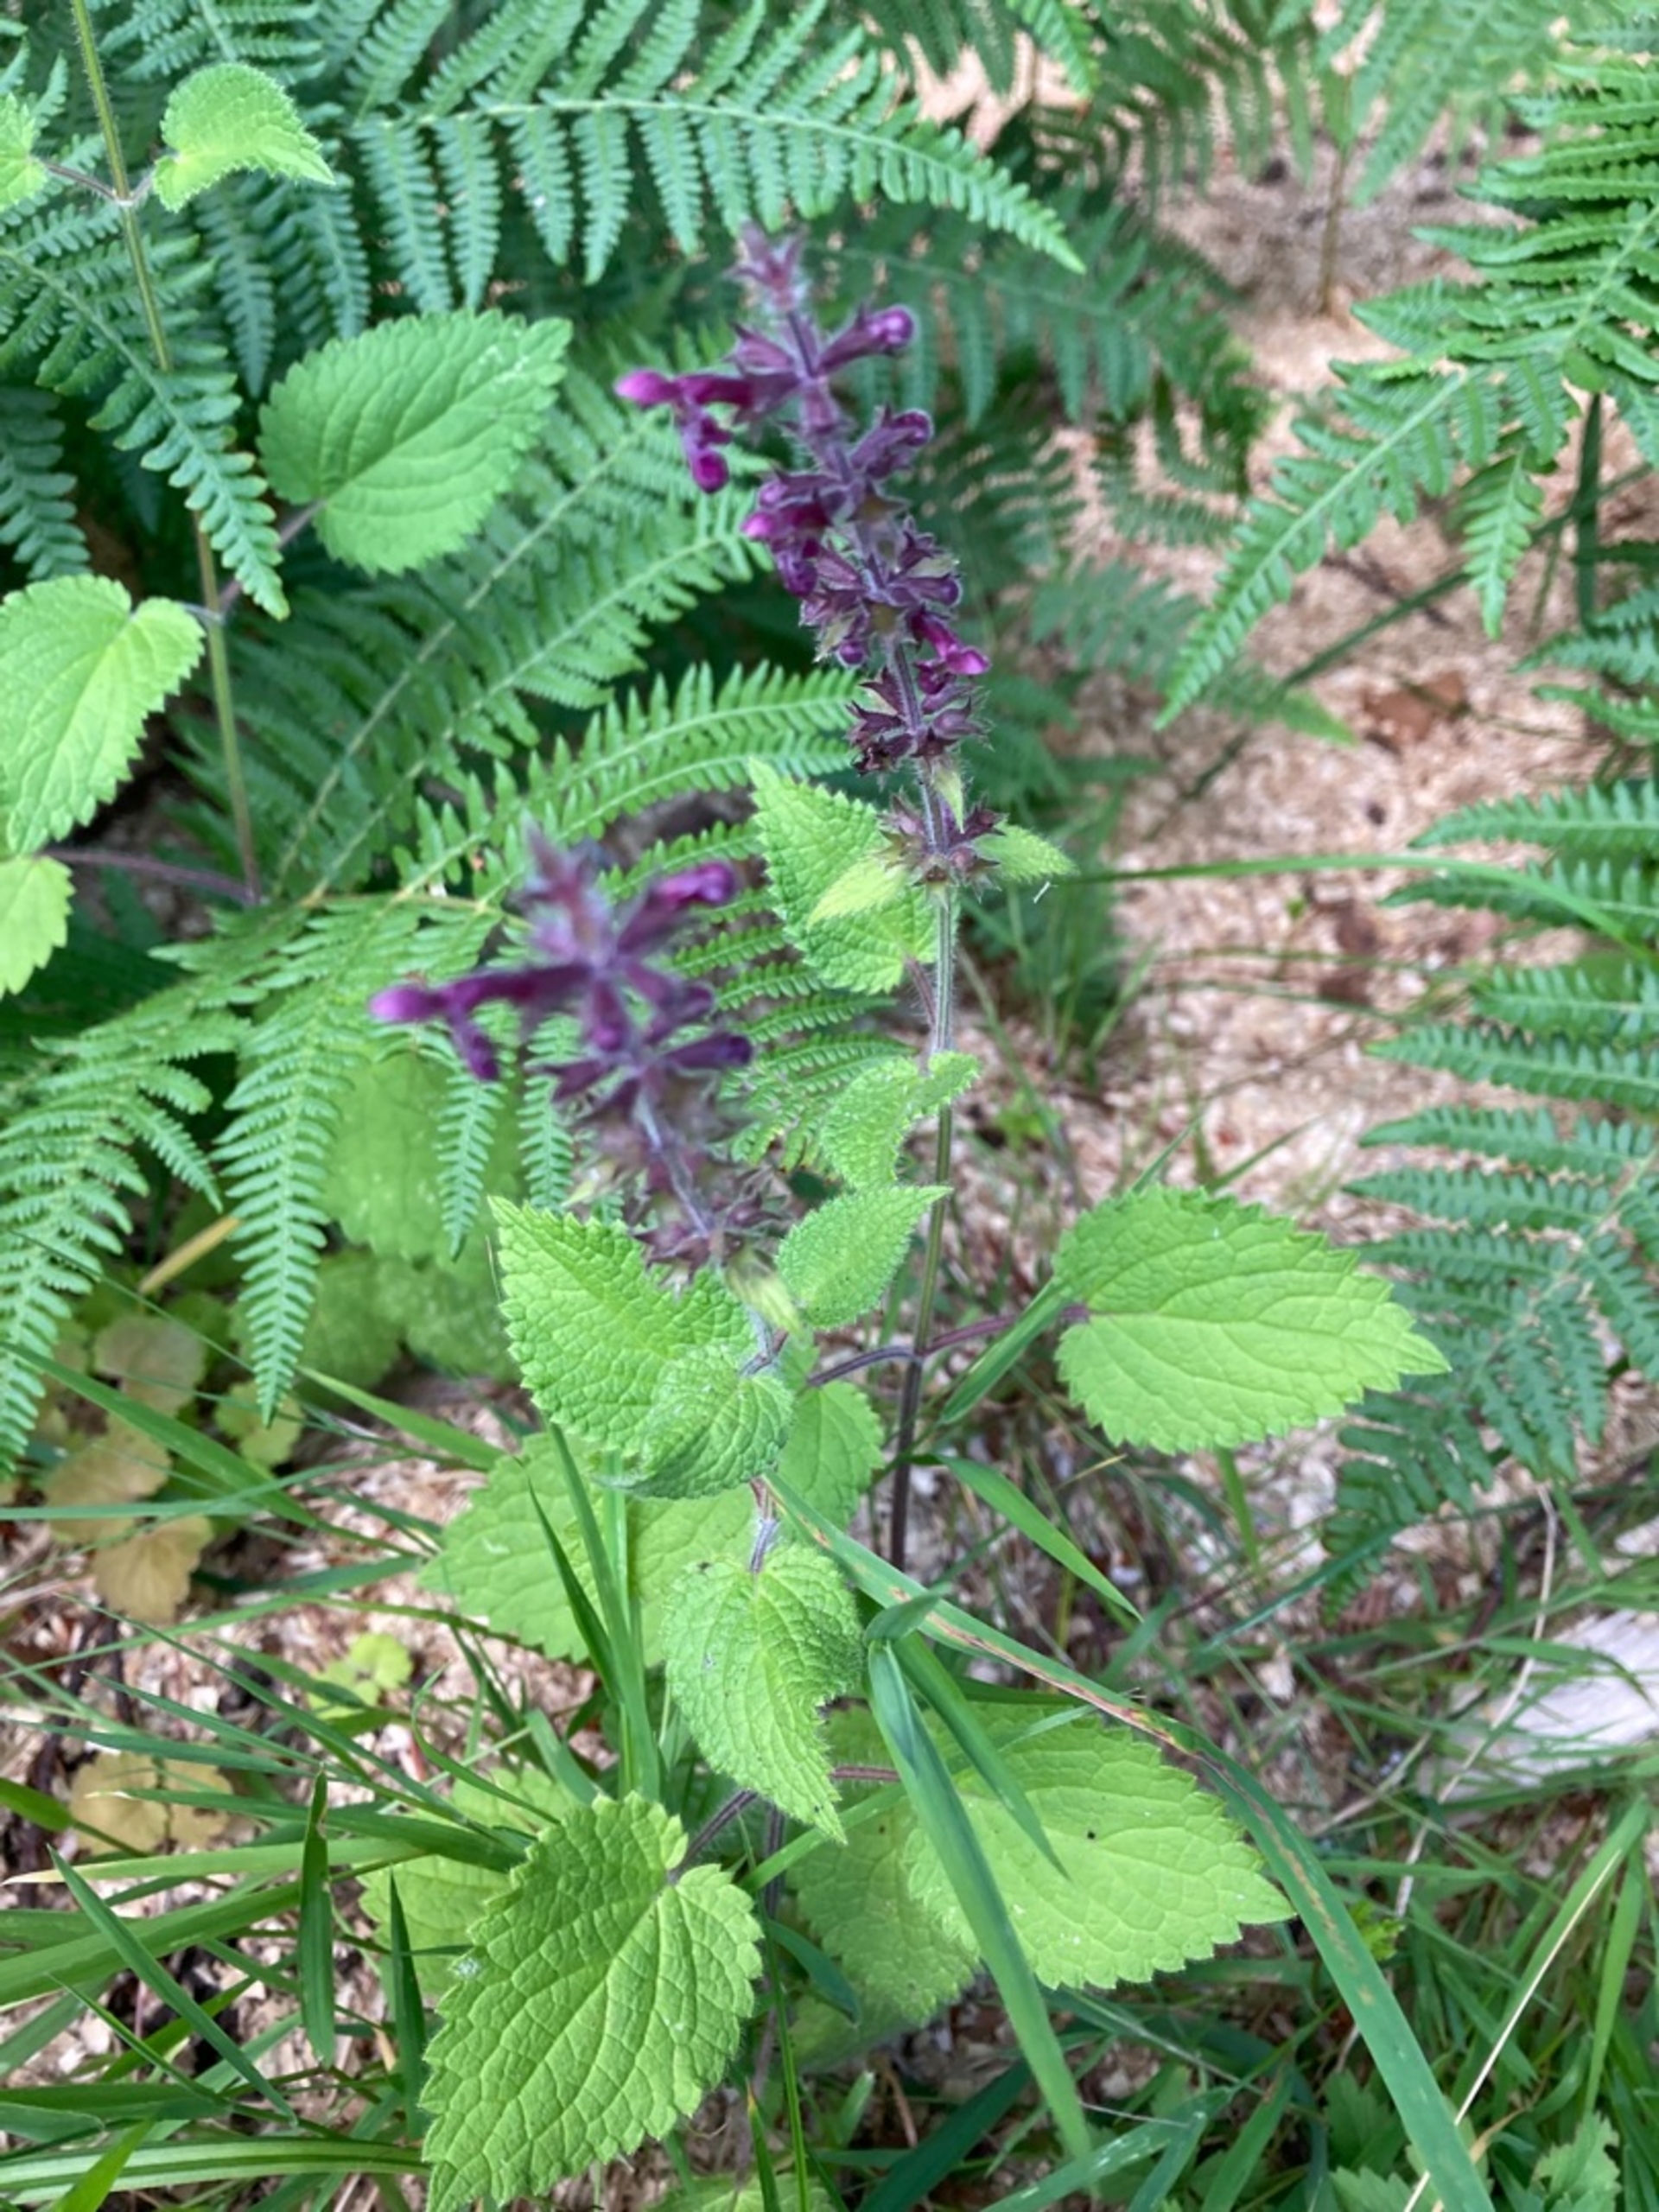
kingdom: Plantae
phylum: Tracheophyta
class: Magnoliopsida
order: Lamiales
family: Lamiaceae
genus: Stachys
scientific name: Stachys sylvatica
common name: Skov-galtetand
